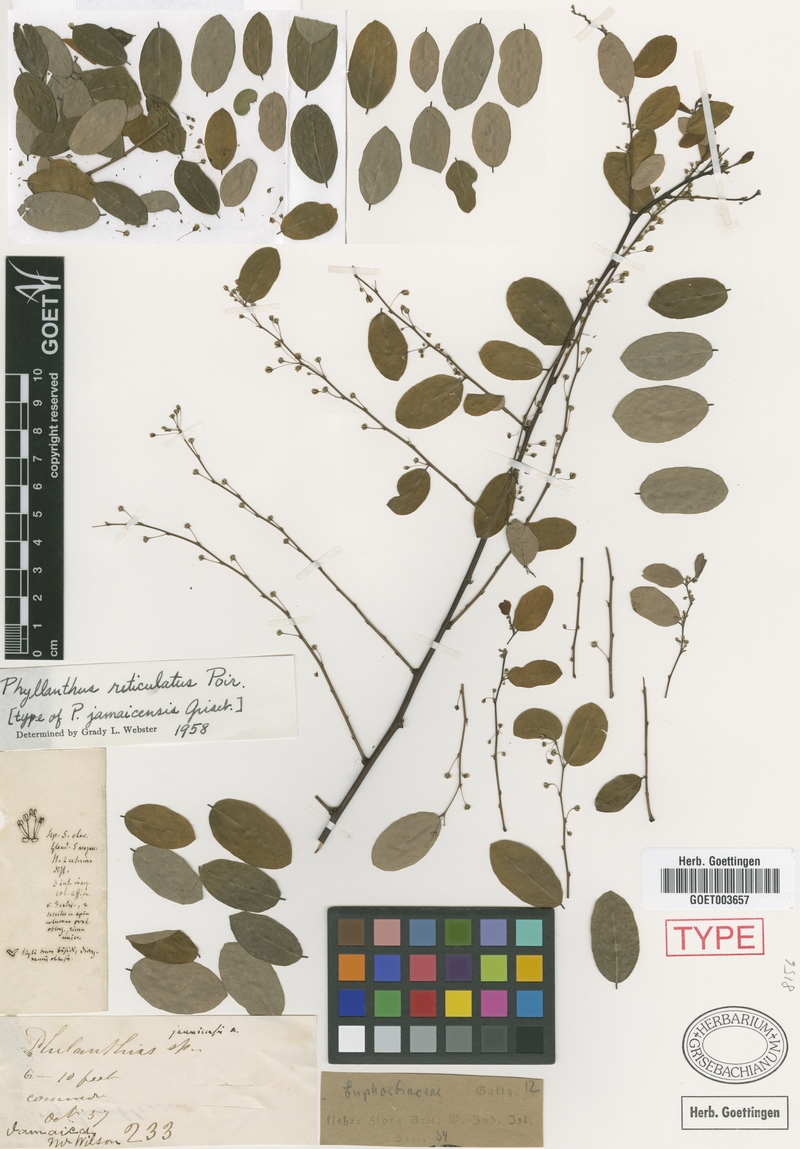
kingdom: Plantae
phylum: Tracheophyta
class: Magnoliopsida
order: Malpighiales
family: Phyllanthaceae
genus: Phyllanthus
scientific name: Phyllanthus reticulatus
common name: Potato bush
